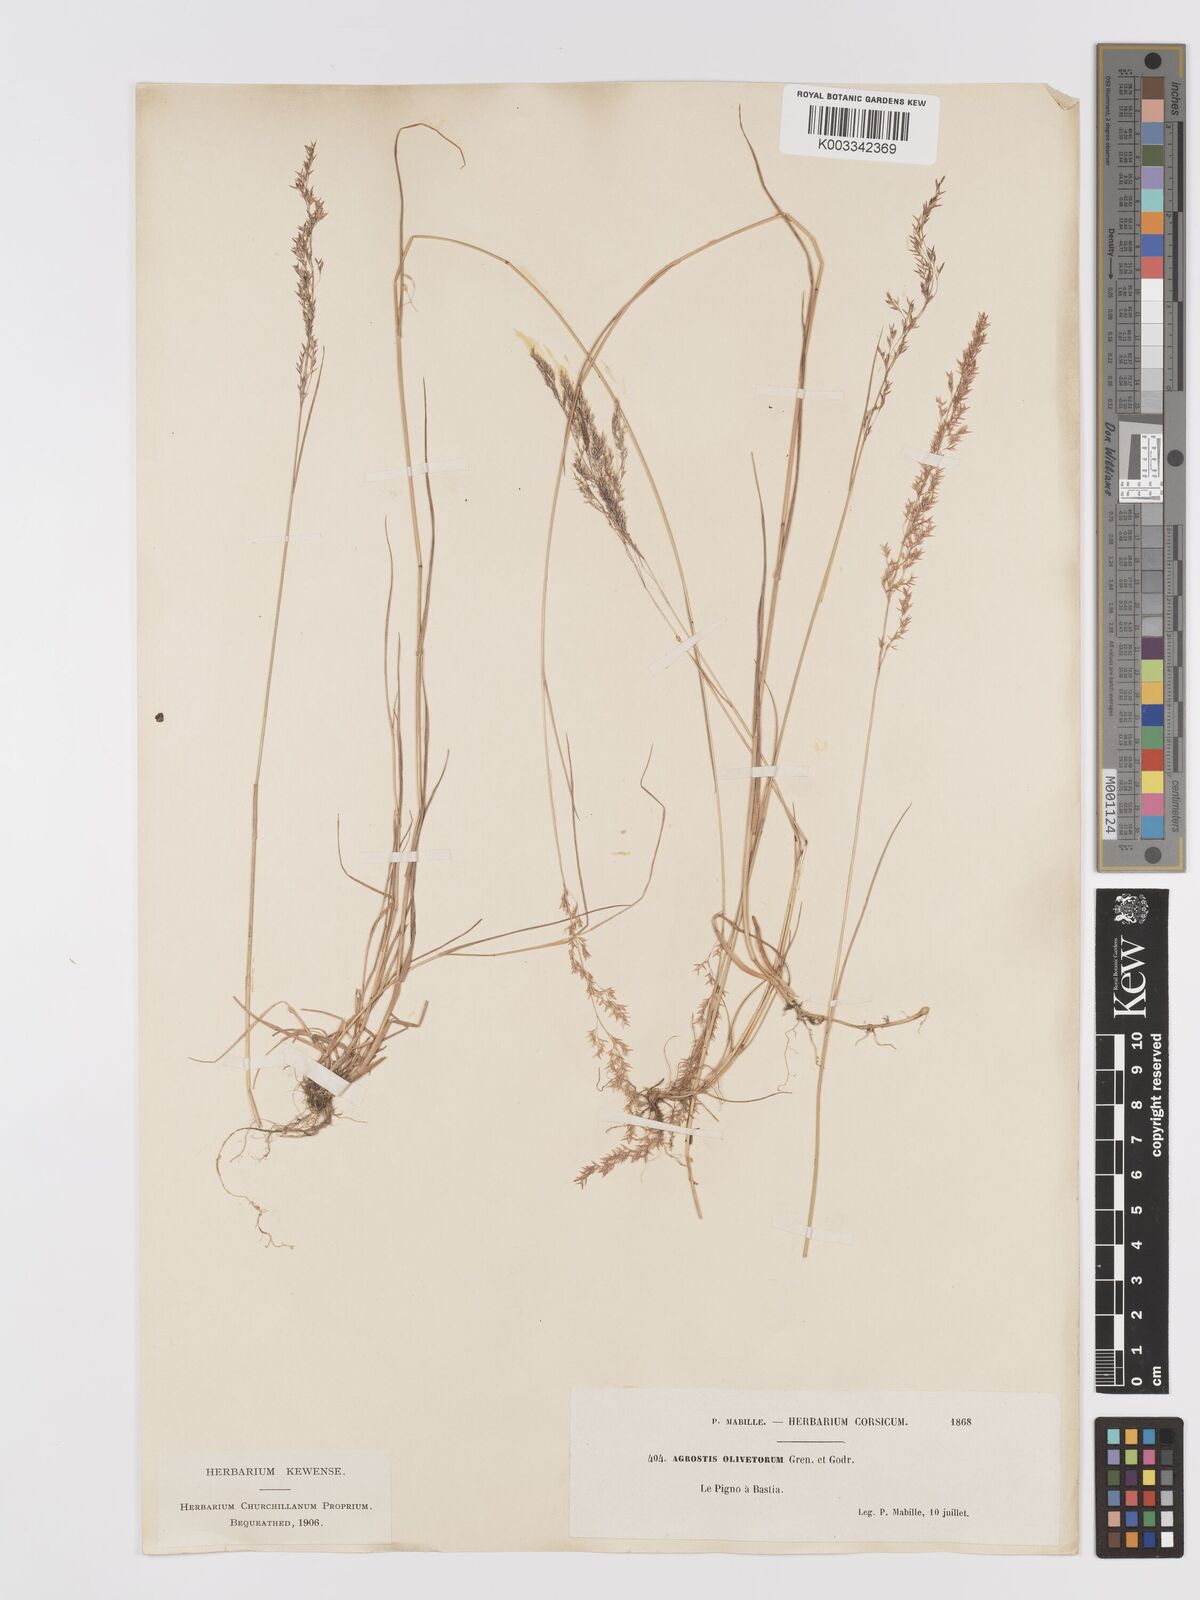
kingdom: Plantae
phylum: Tracheophyta
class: Liliopsida
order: Poales
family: Poaceae
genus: Agrostis
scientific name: Agrostis castellana
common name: Highland bent
